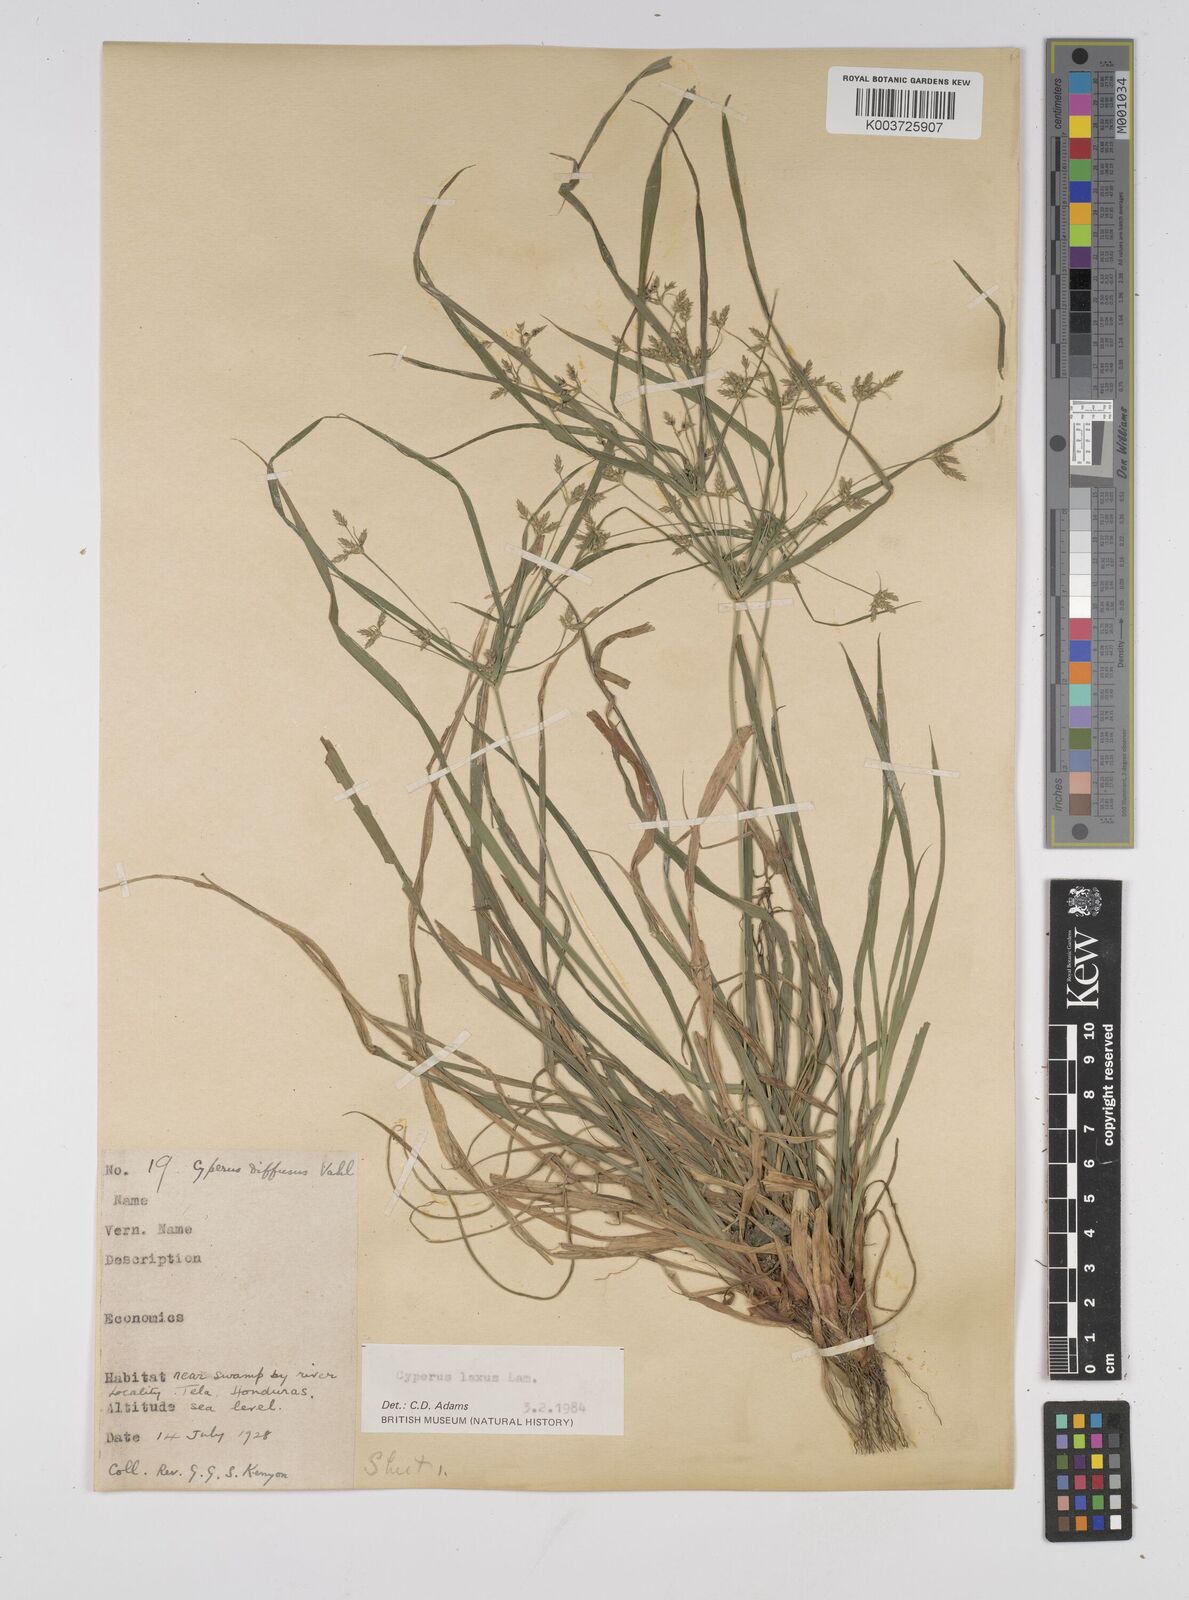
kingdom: Plantae
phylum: Tracheophyta
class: Liliopsida
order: Poales
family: Cyperaceae
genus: Cyperus
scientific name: Cyperus chalaranthus
